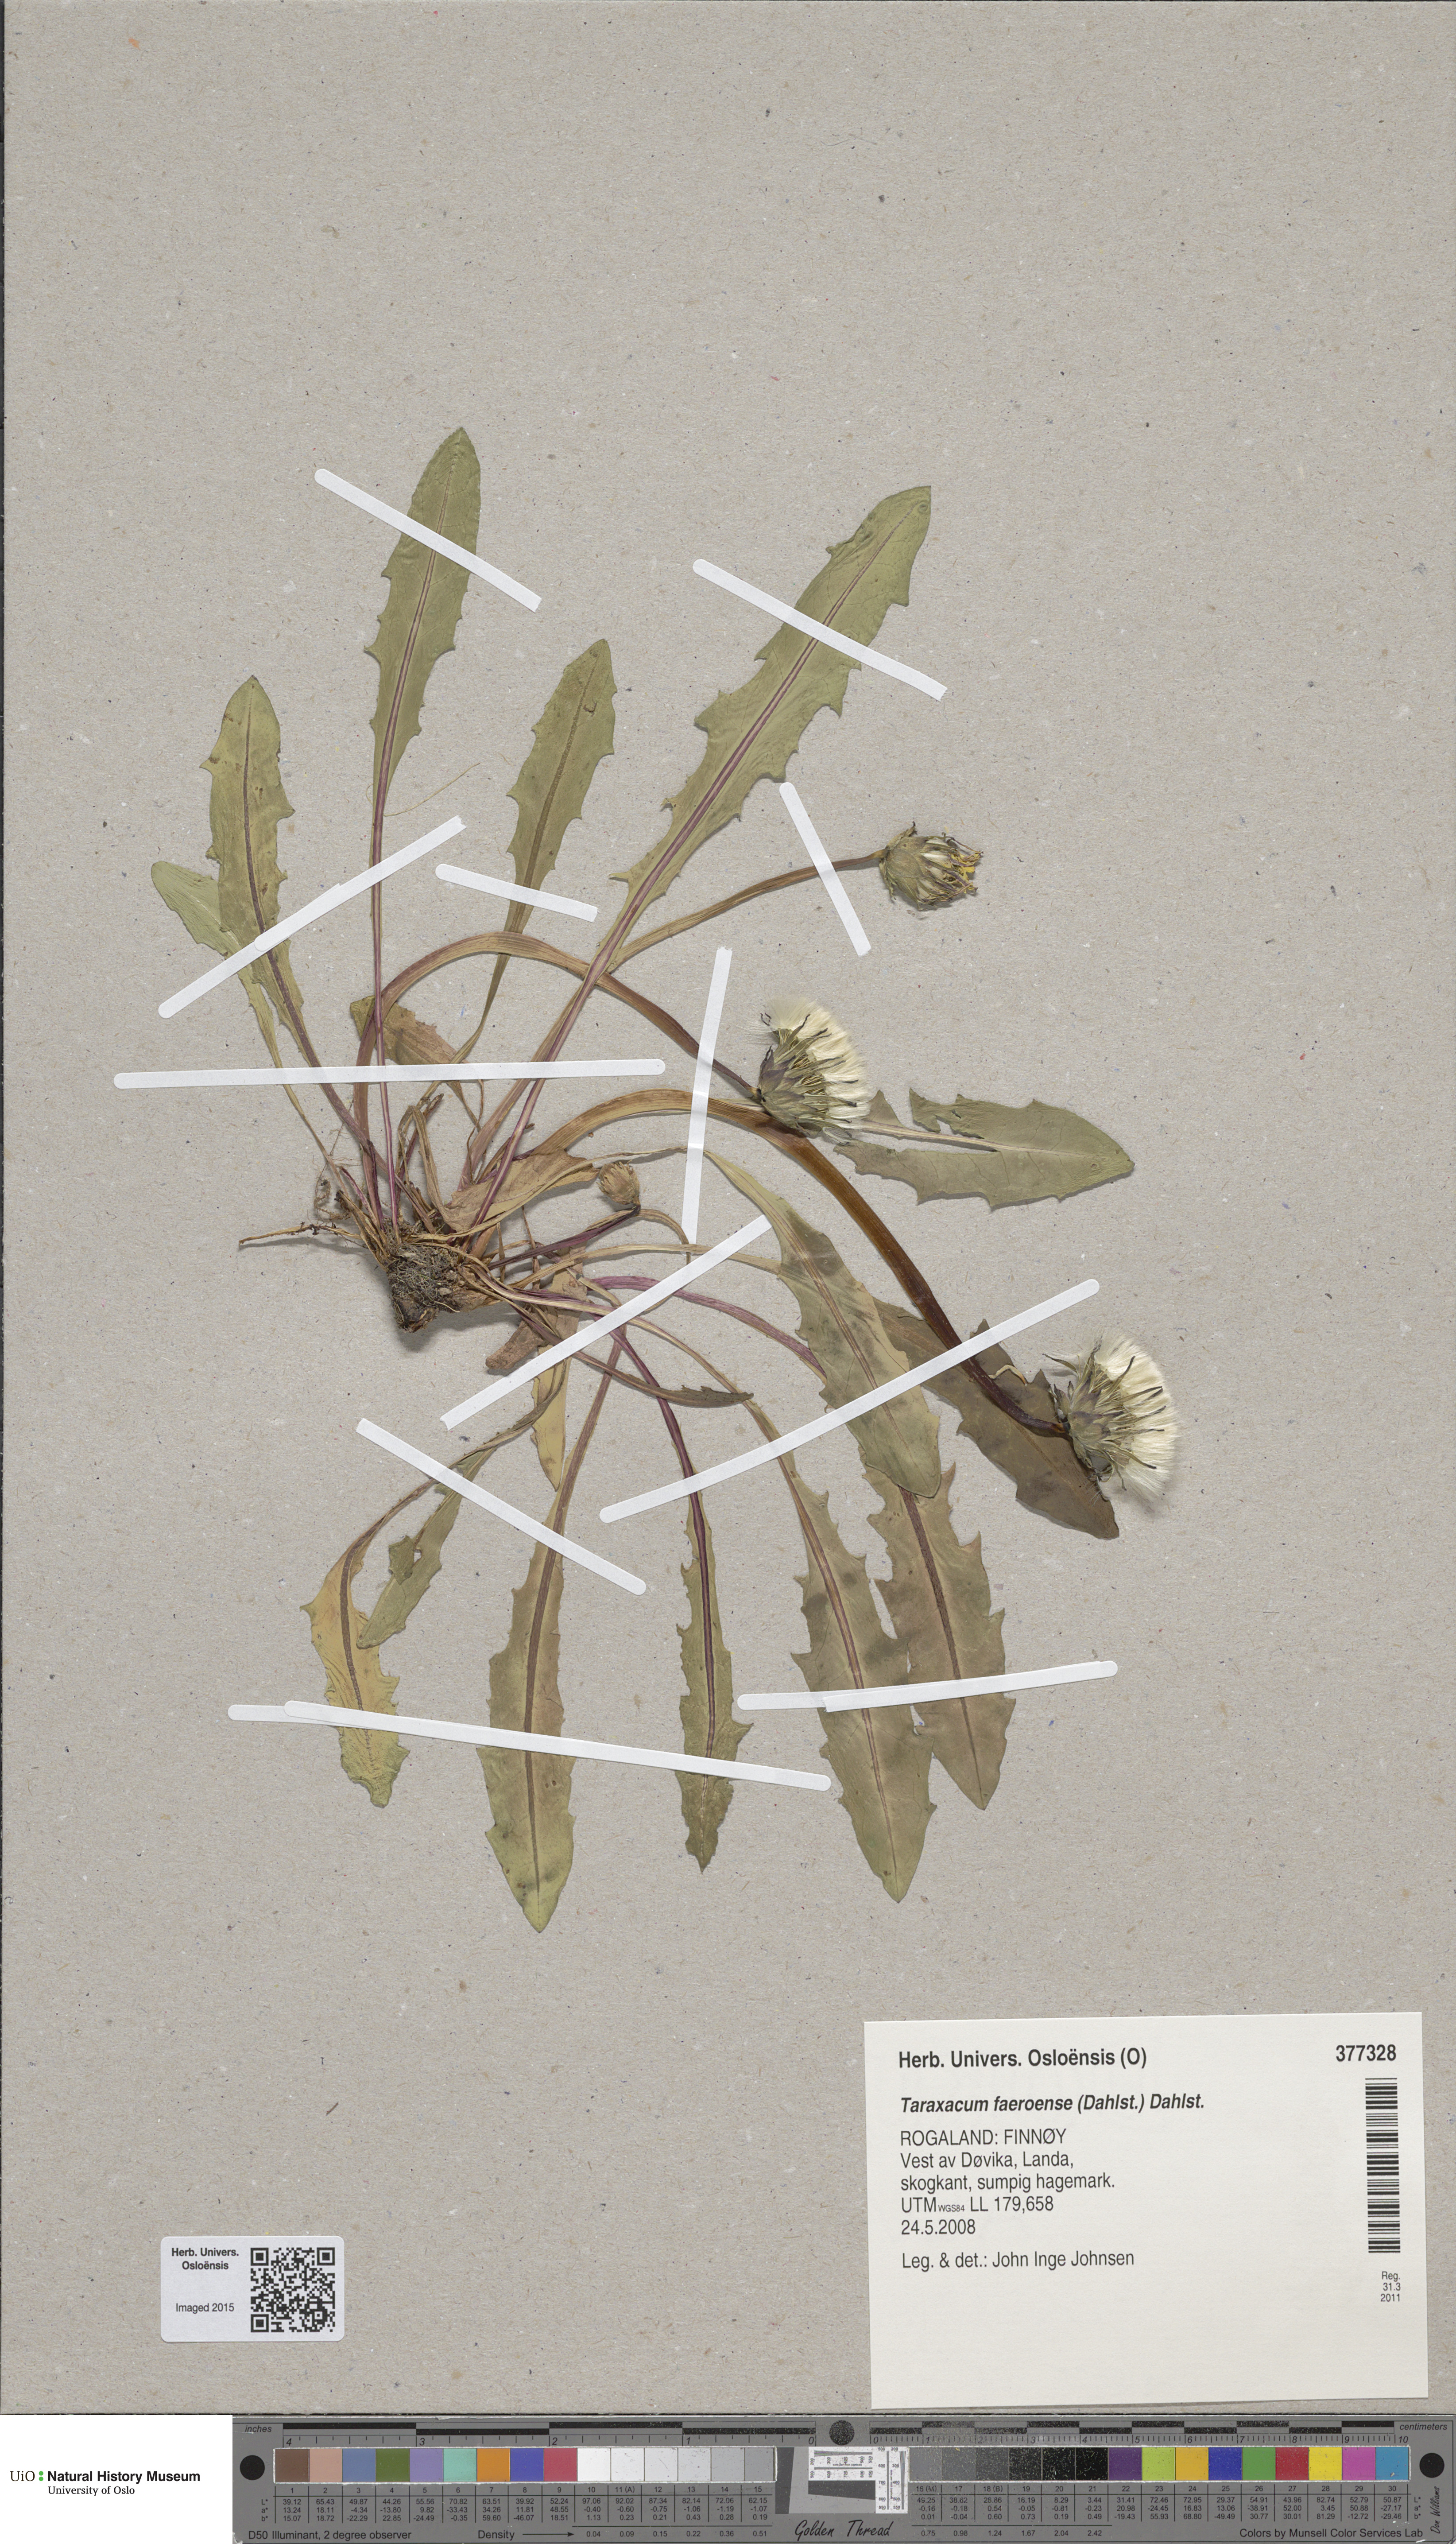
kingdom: Plantae
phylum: Tracheophyta
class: Magnoliopsida
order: Asterales
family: Asteraceae
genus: Taraxacum
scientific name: Taraxacum faeroense
